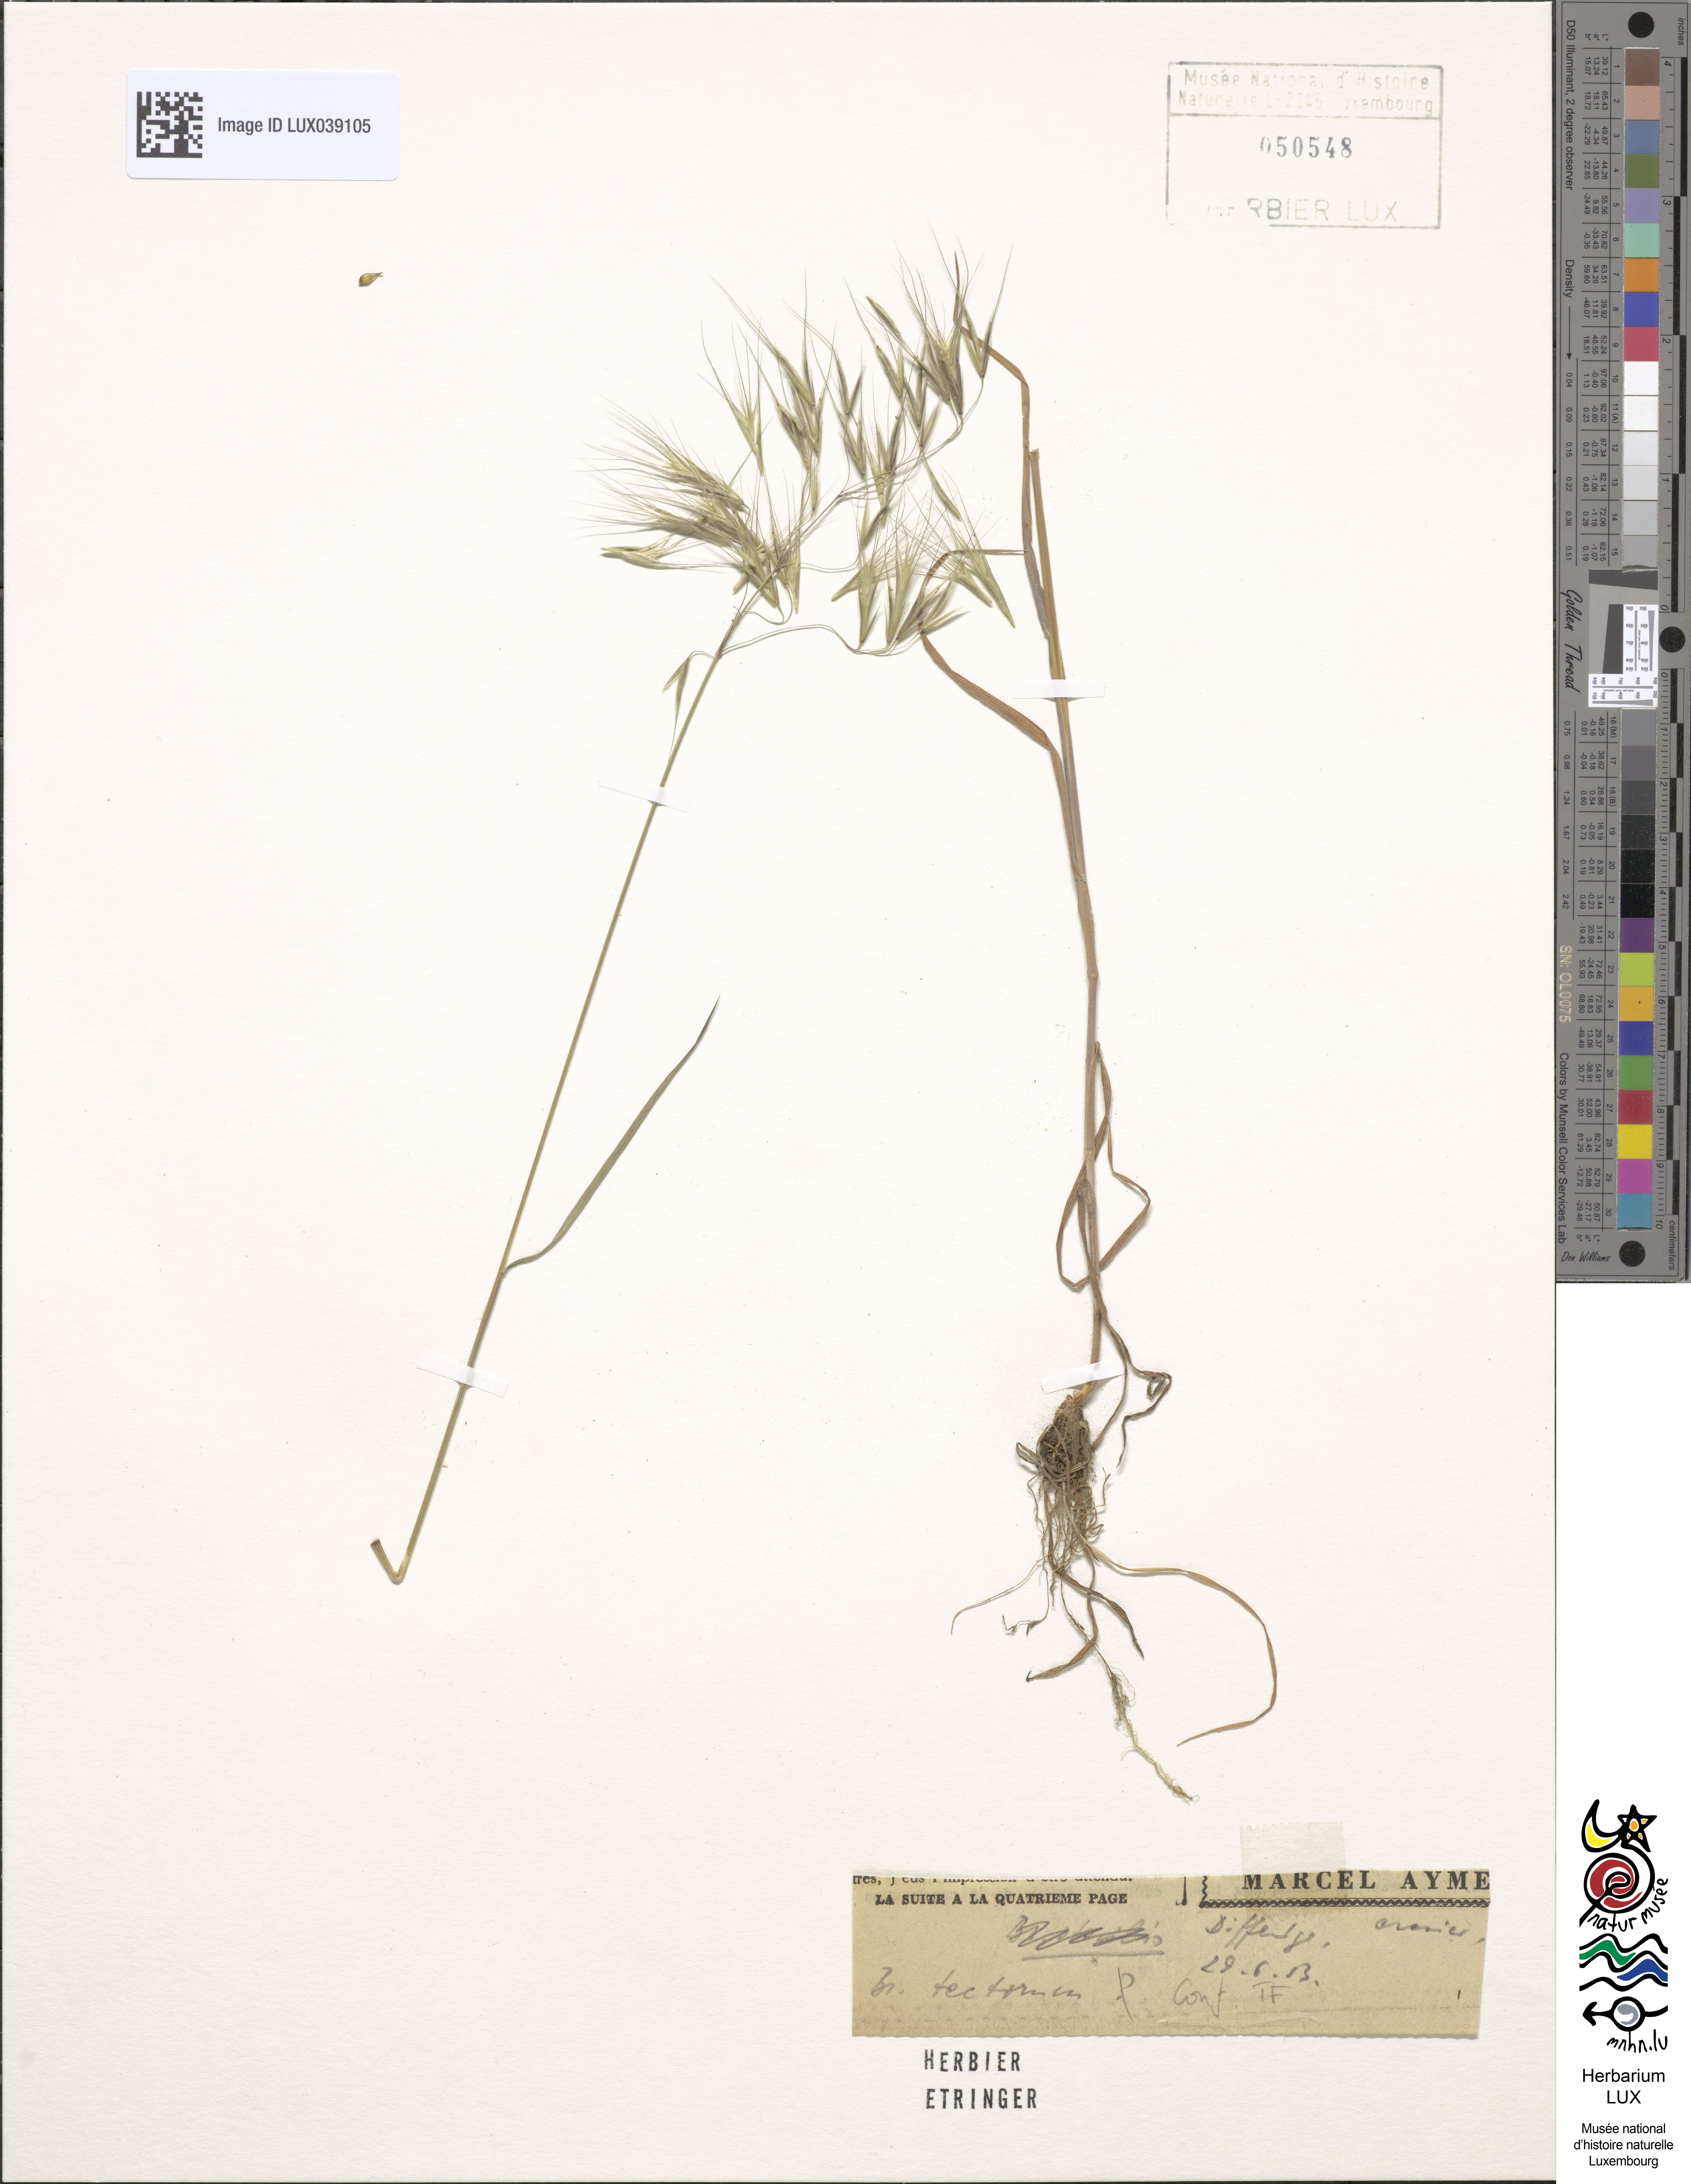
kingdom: Plantae
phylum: Tracheophyta
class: Liliopsida
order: Poales
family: Poaceae
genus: Bromus
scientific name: Bromus tectorum
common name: Cheatgrass
